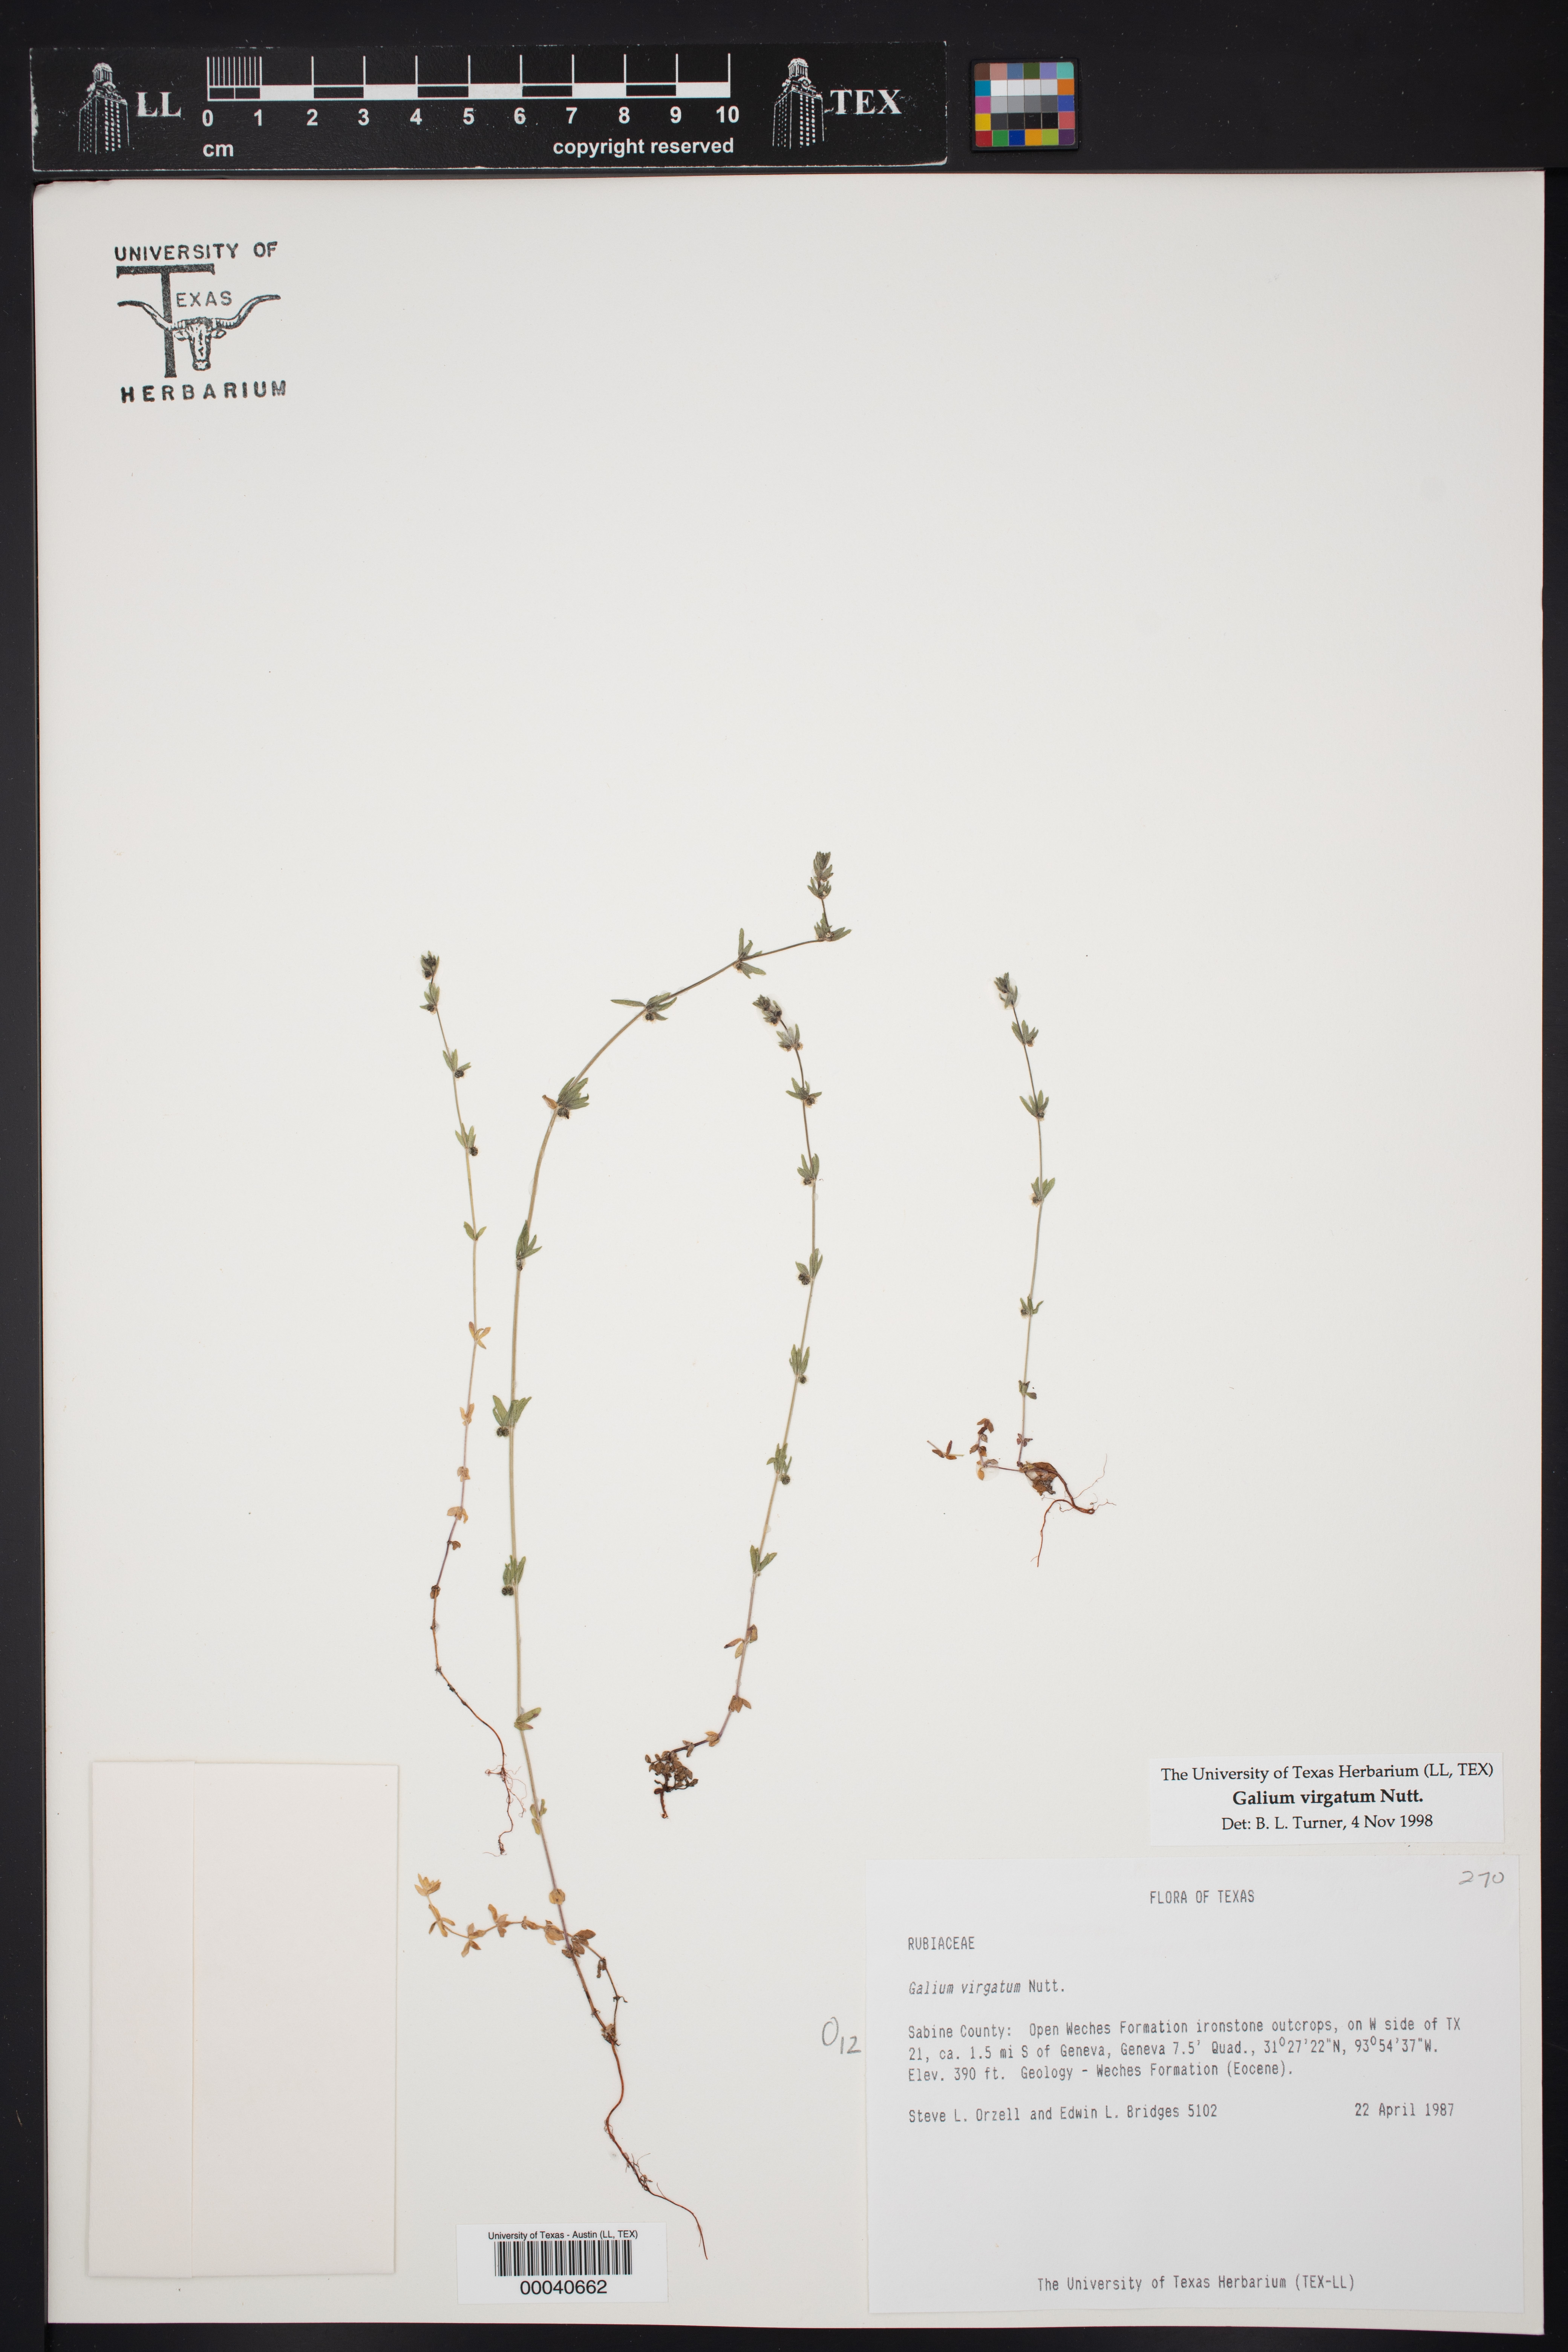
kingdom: Plantae
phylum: Tracheophyta
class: Magnoliopsida
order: Gentianales
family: Rubiaceae
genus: Galium
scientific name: Galium virgatum
